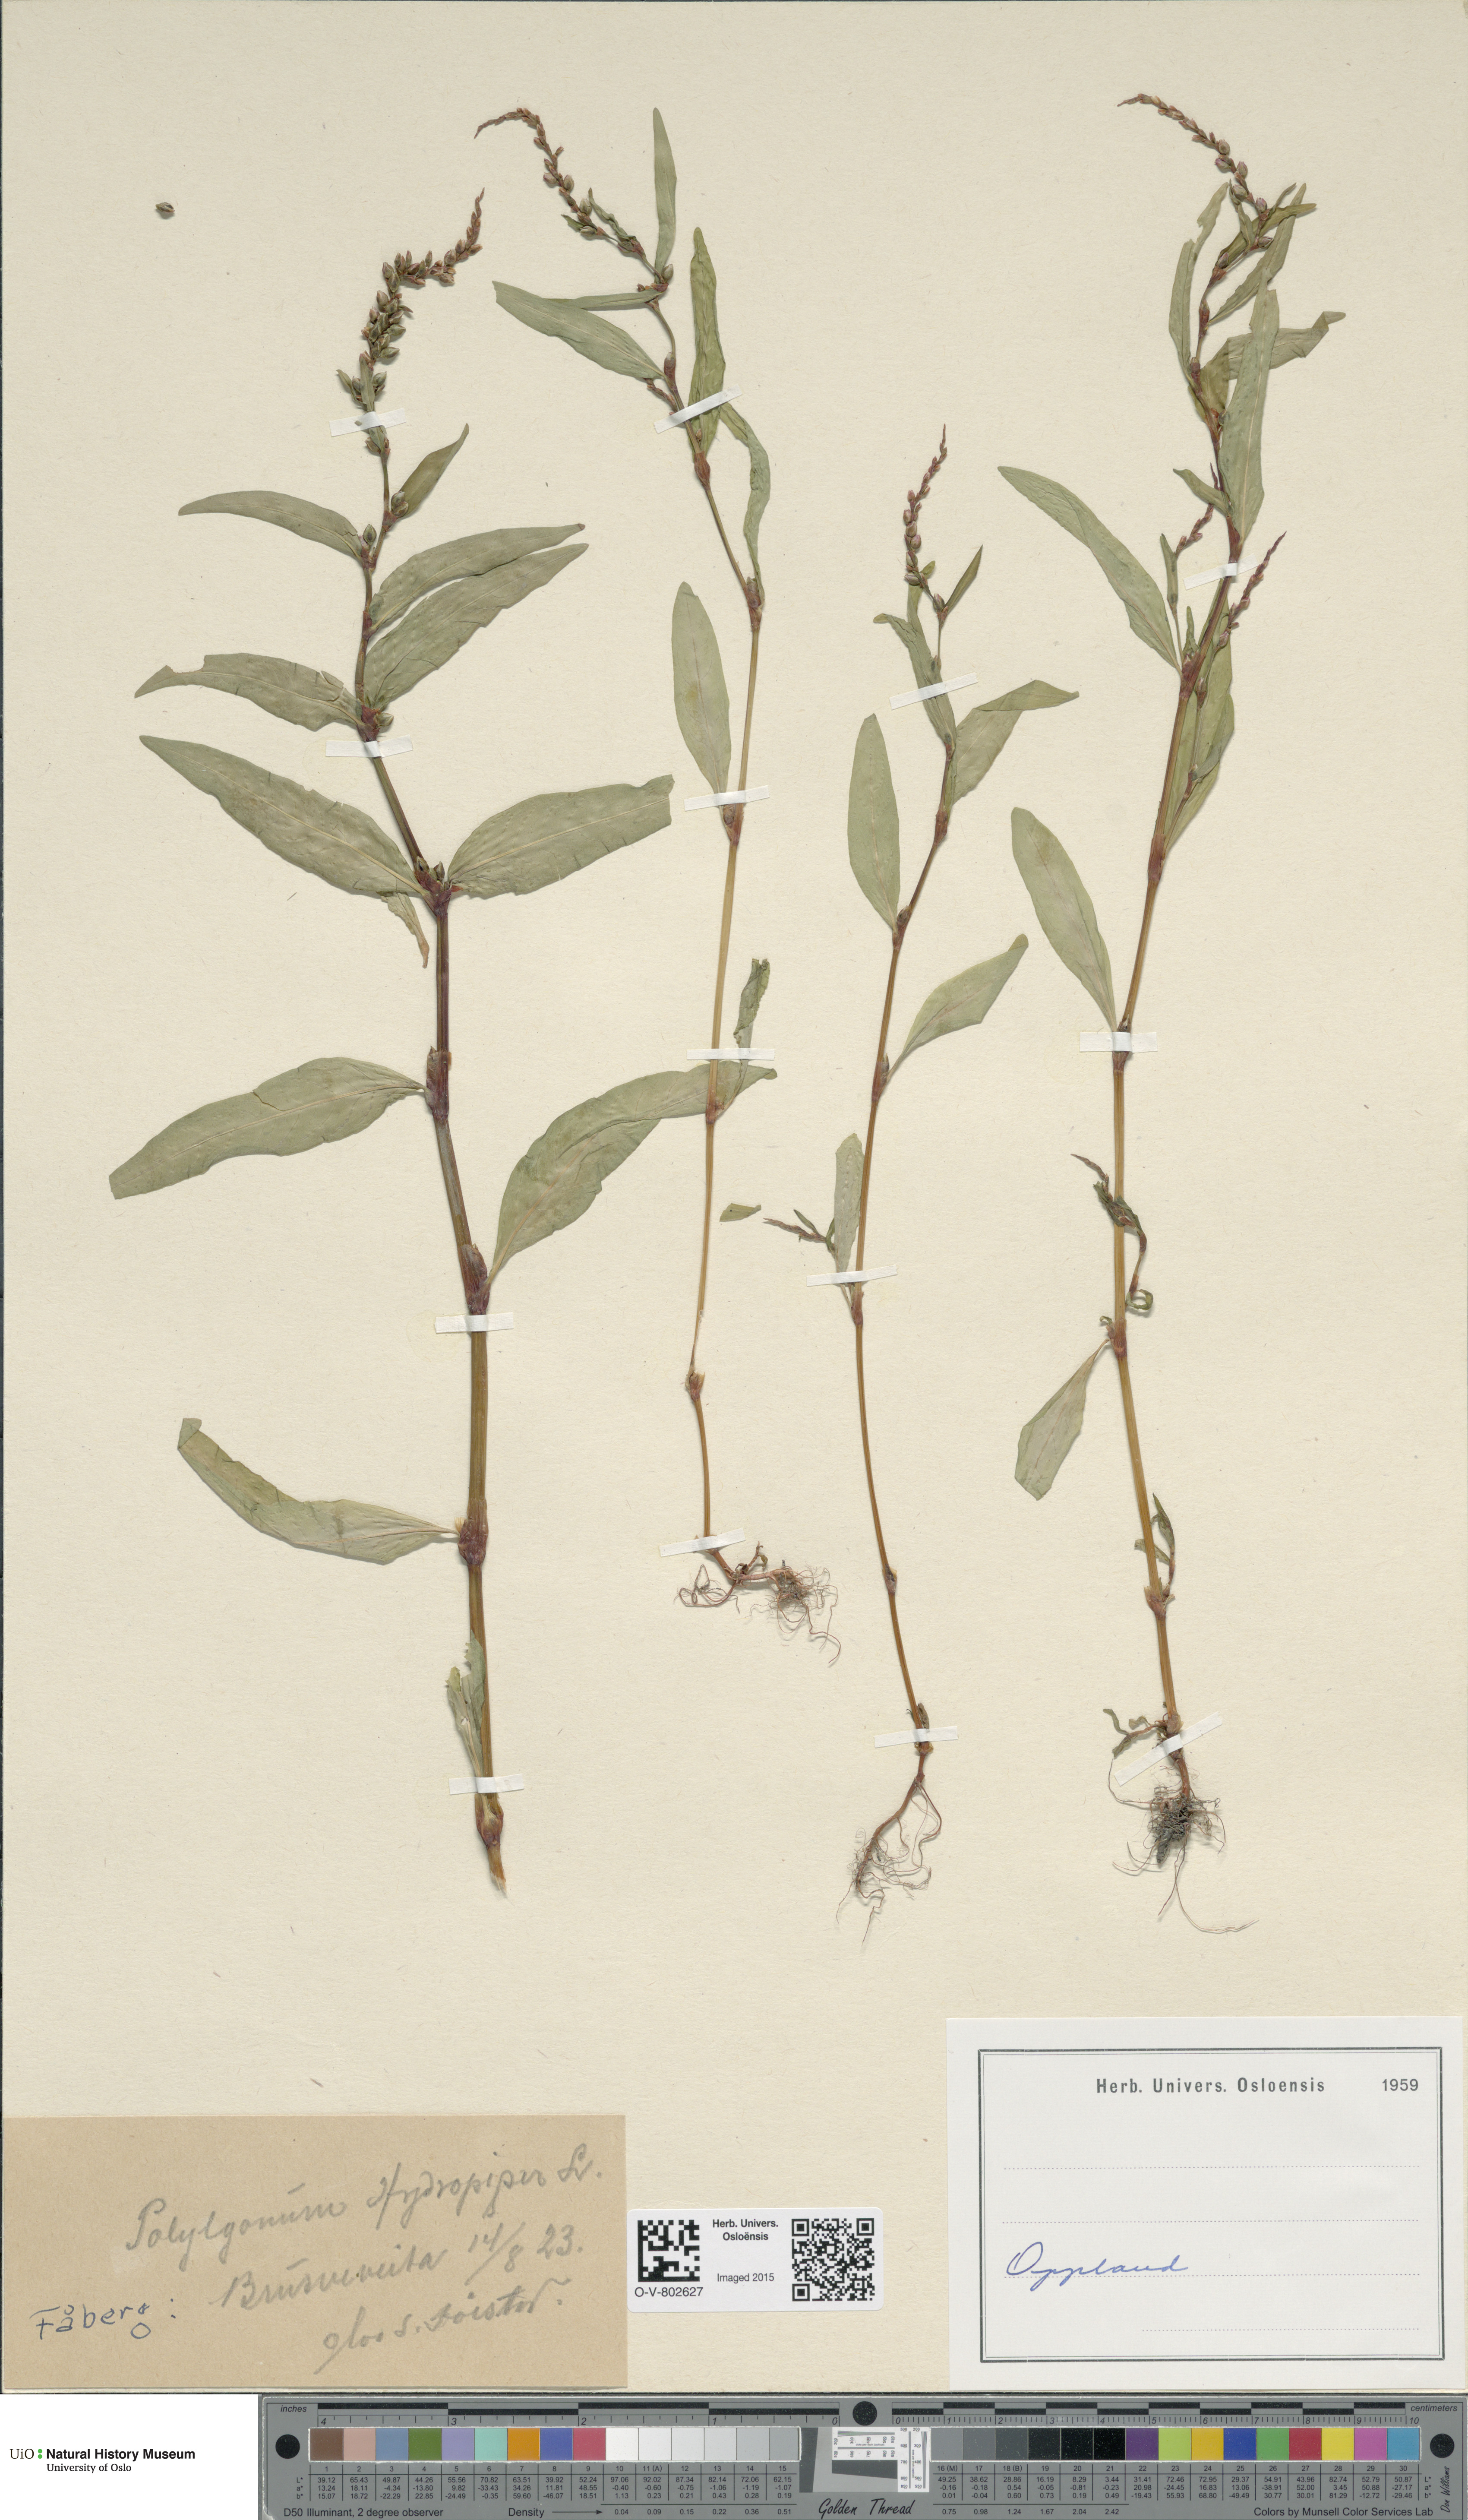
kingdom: Plantae
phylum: Tracheophyta
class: Magnoliopsida
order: Caryophyllales
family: Polygonaceae
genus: Persicaria
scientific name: Persicaria hydropiper
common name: Water-pepper
